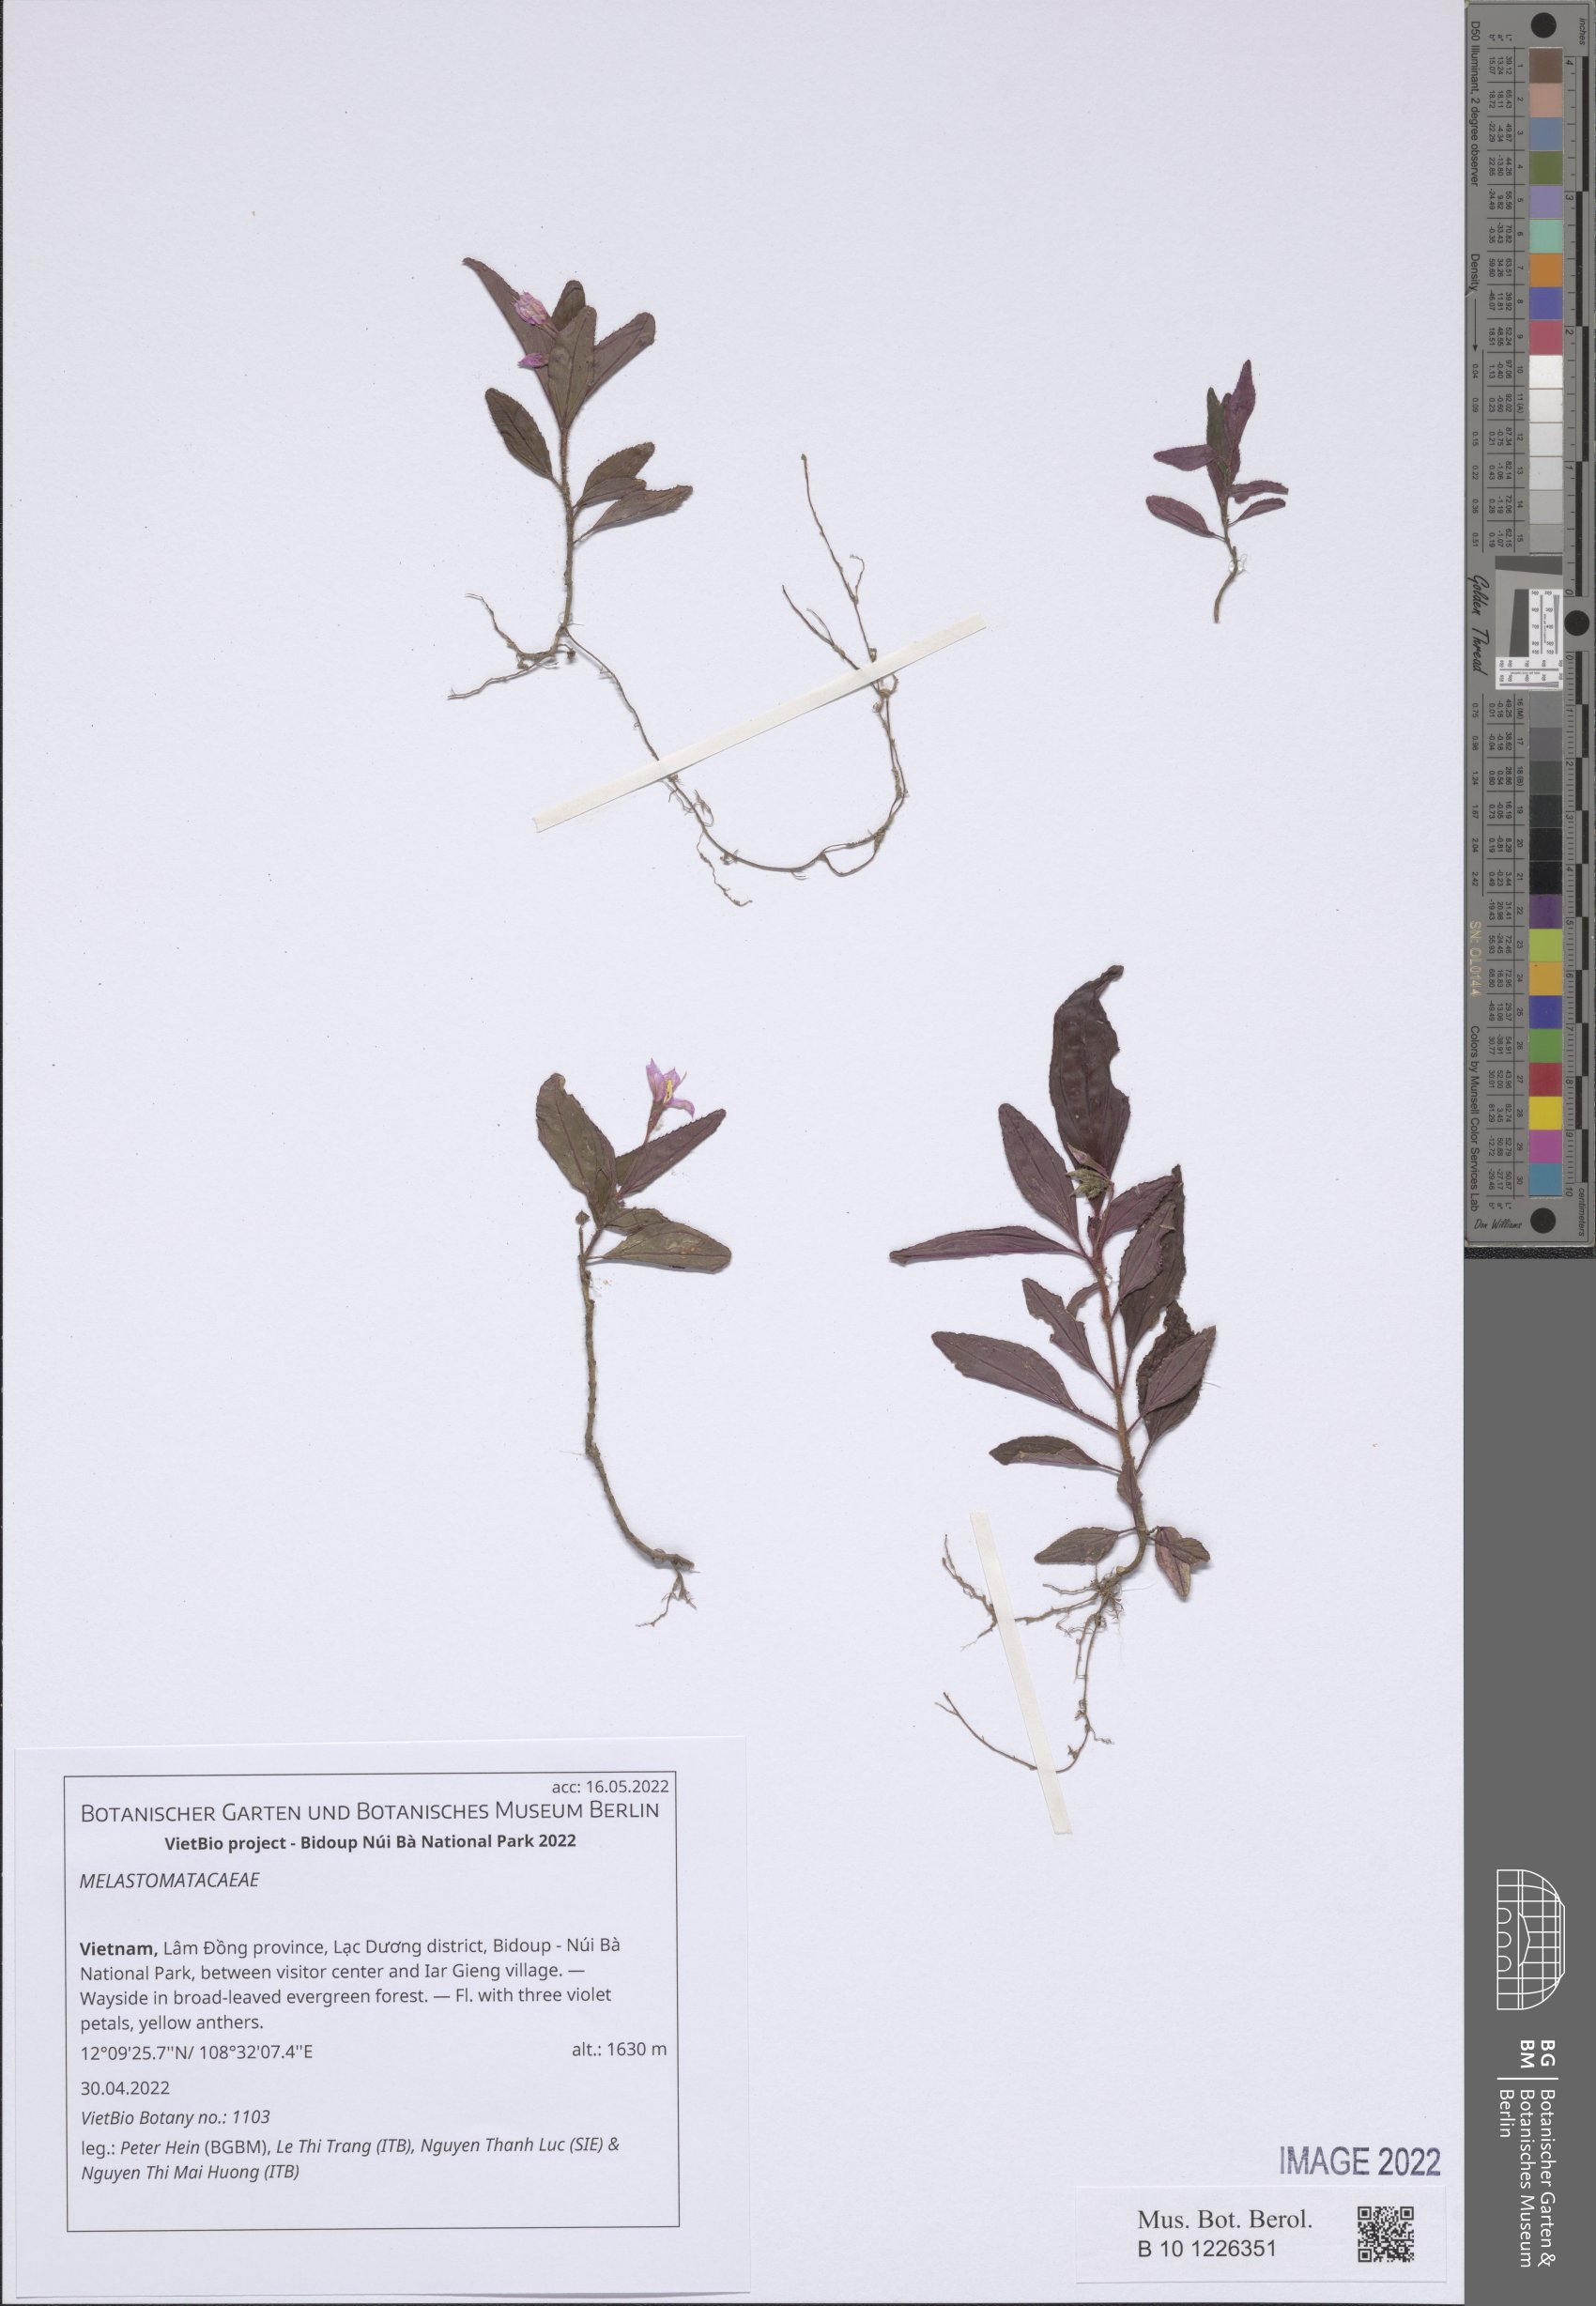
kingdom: Plantae
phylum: Tracheophyta
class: Magnoliopsida
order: Myrtales
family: Melastomataceae
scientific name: Melastomataceae
